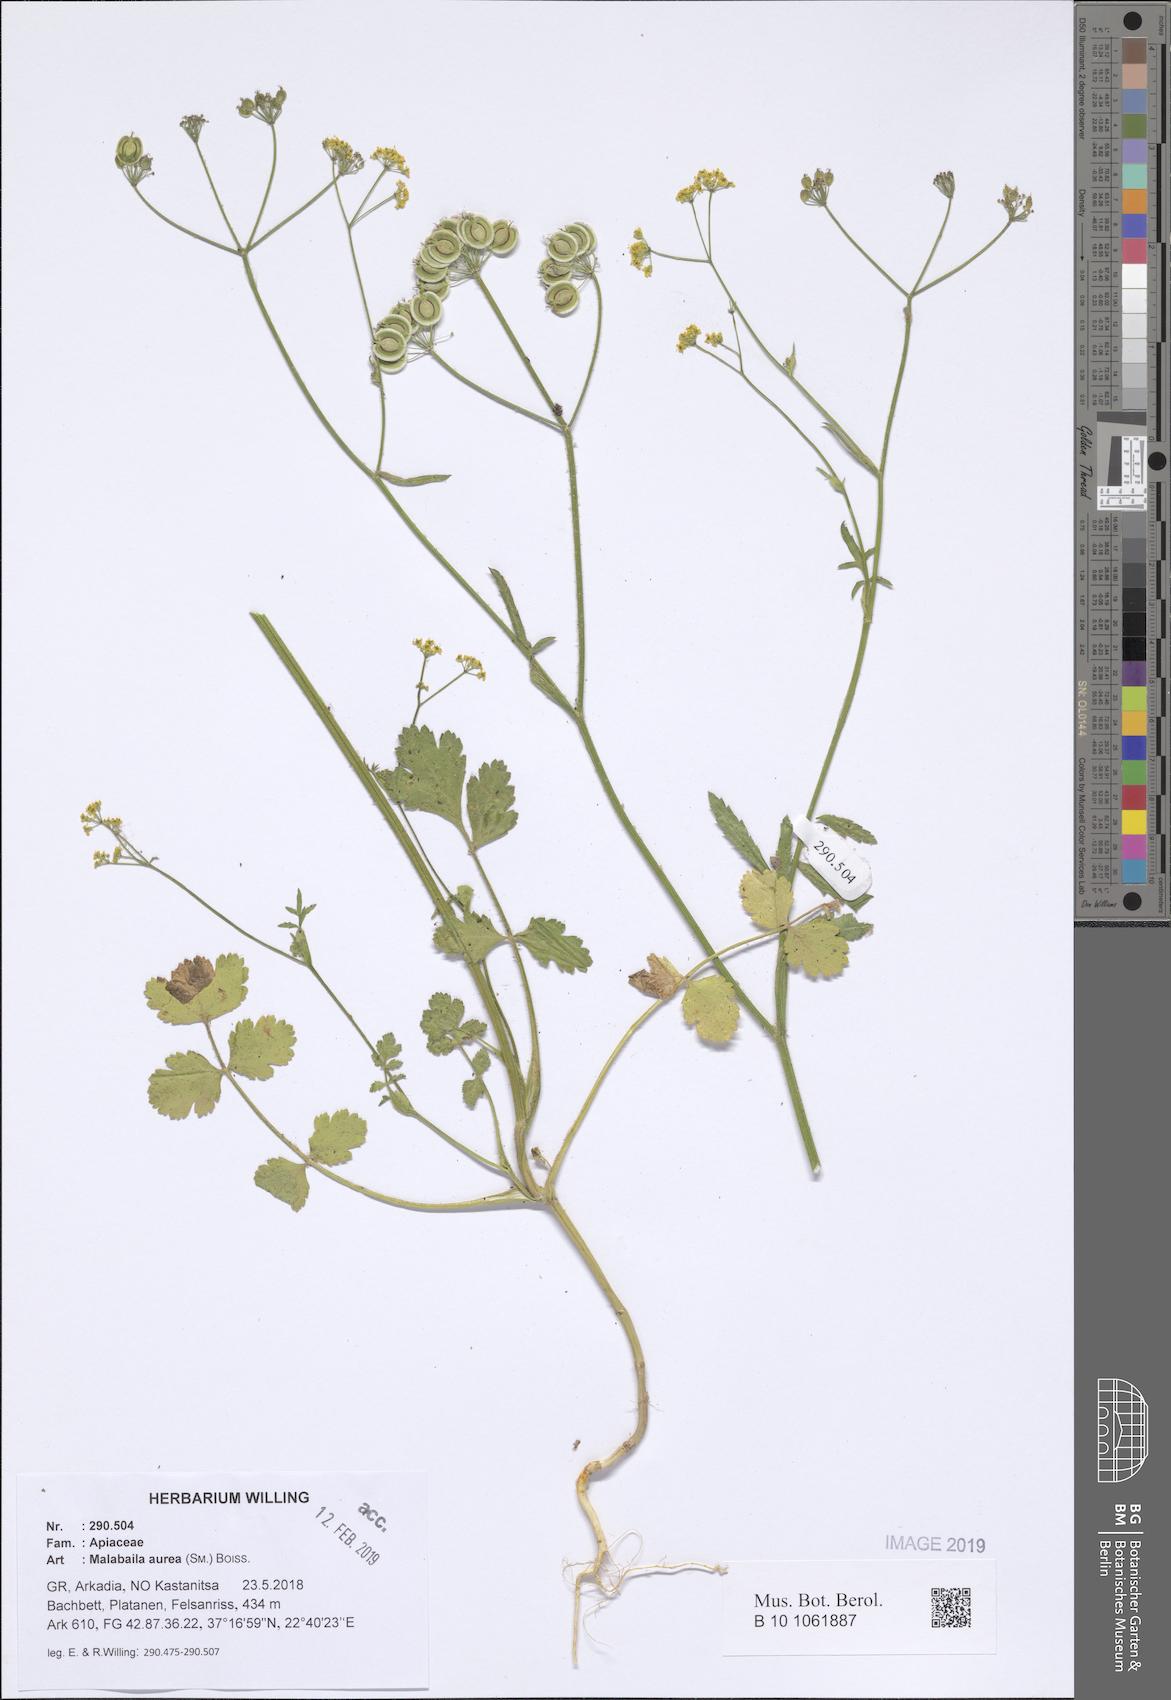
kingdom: Plantae
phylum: Tracheophyta
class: Magnoliopsida
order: Apiales
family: Apiaceae
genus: Leiotulus
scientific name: Leiotulus aureus
